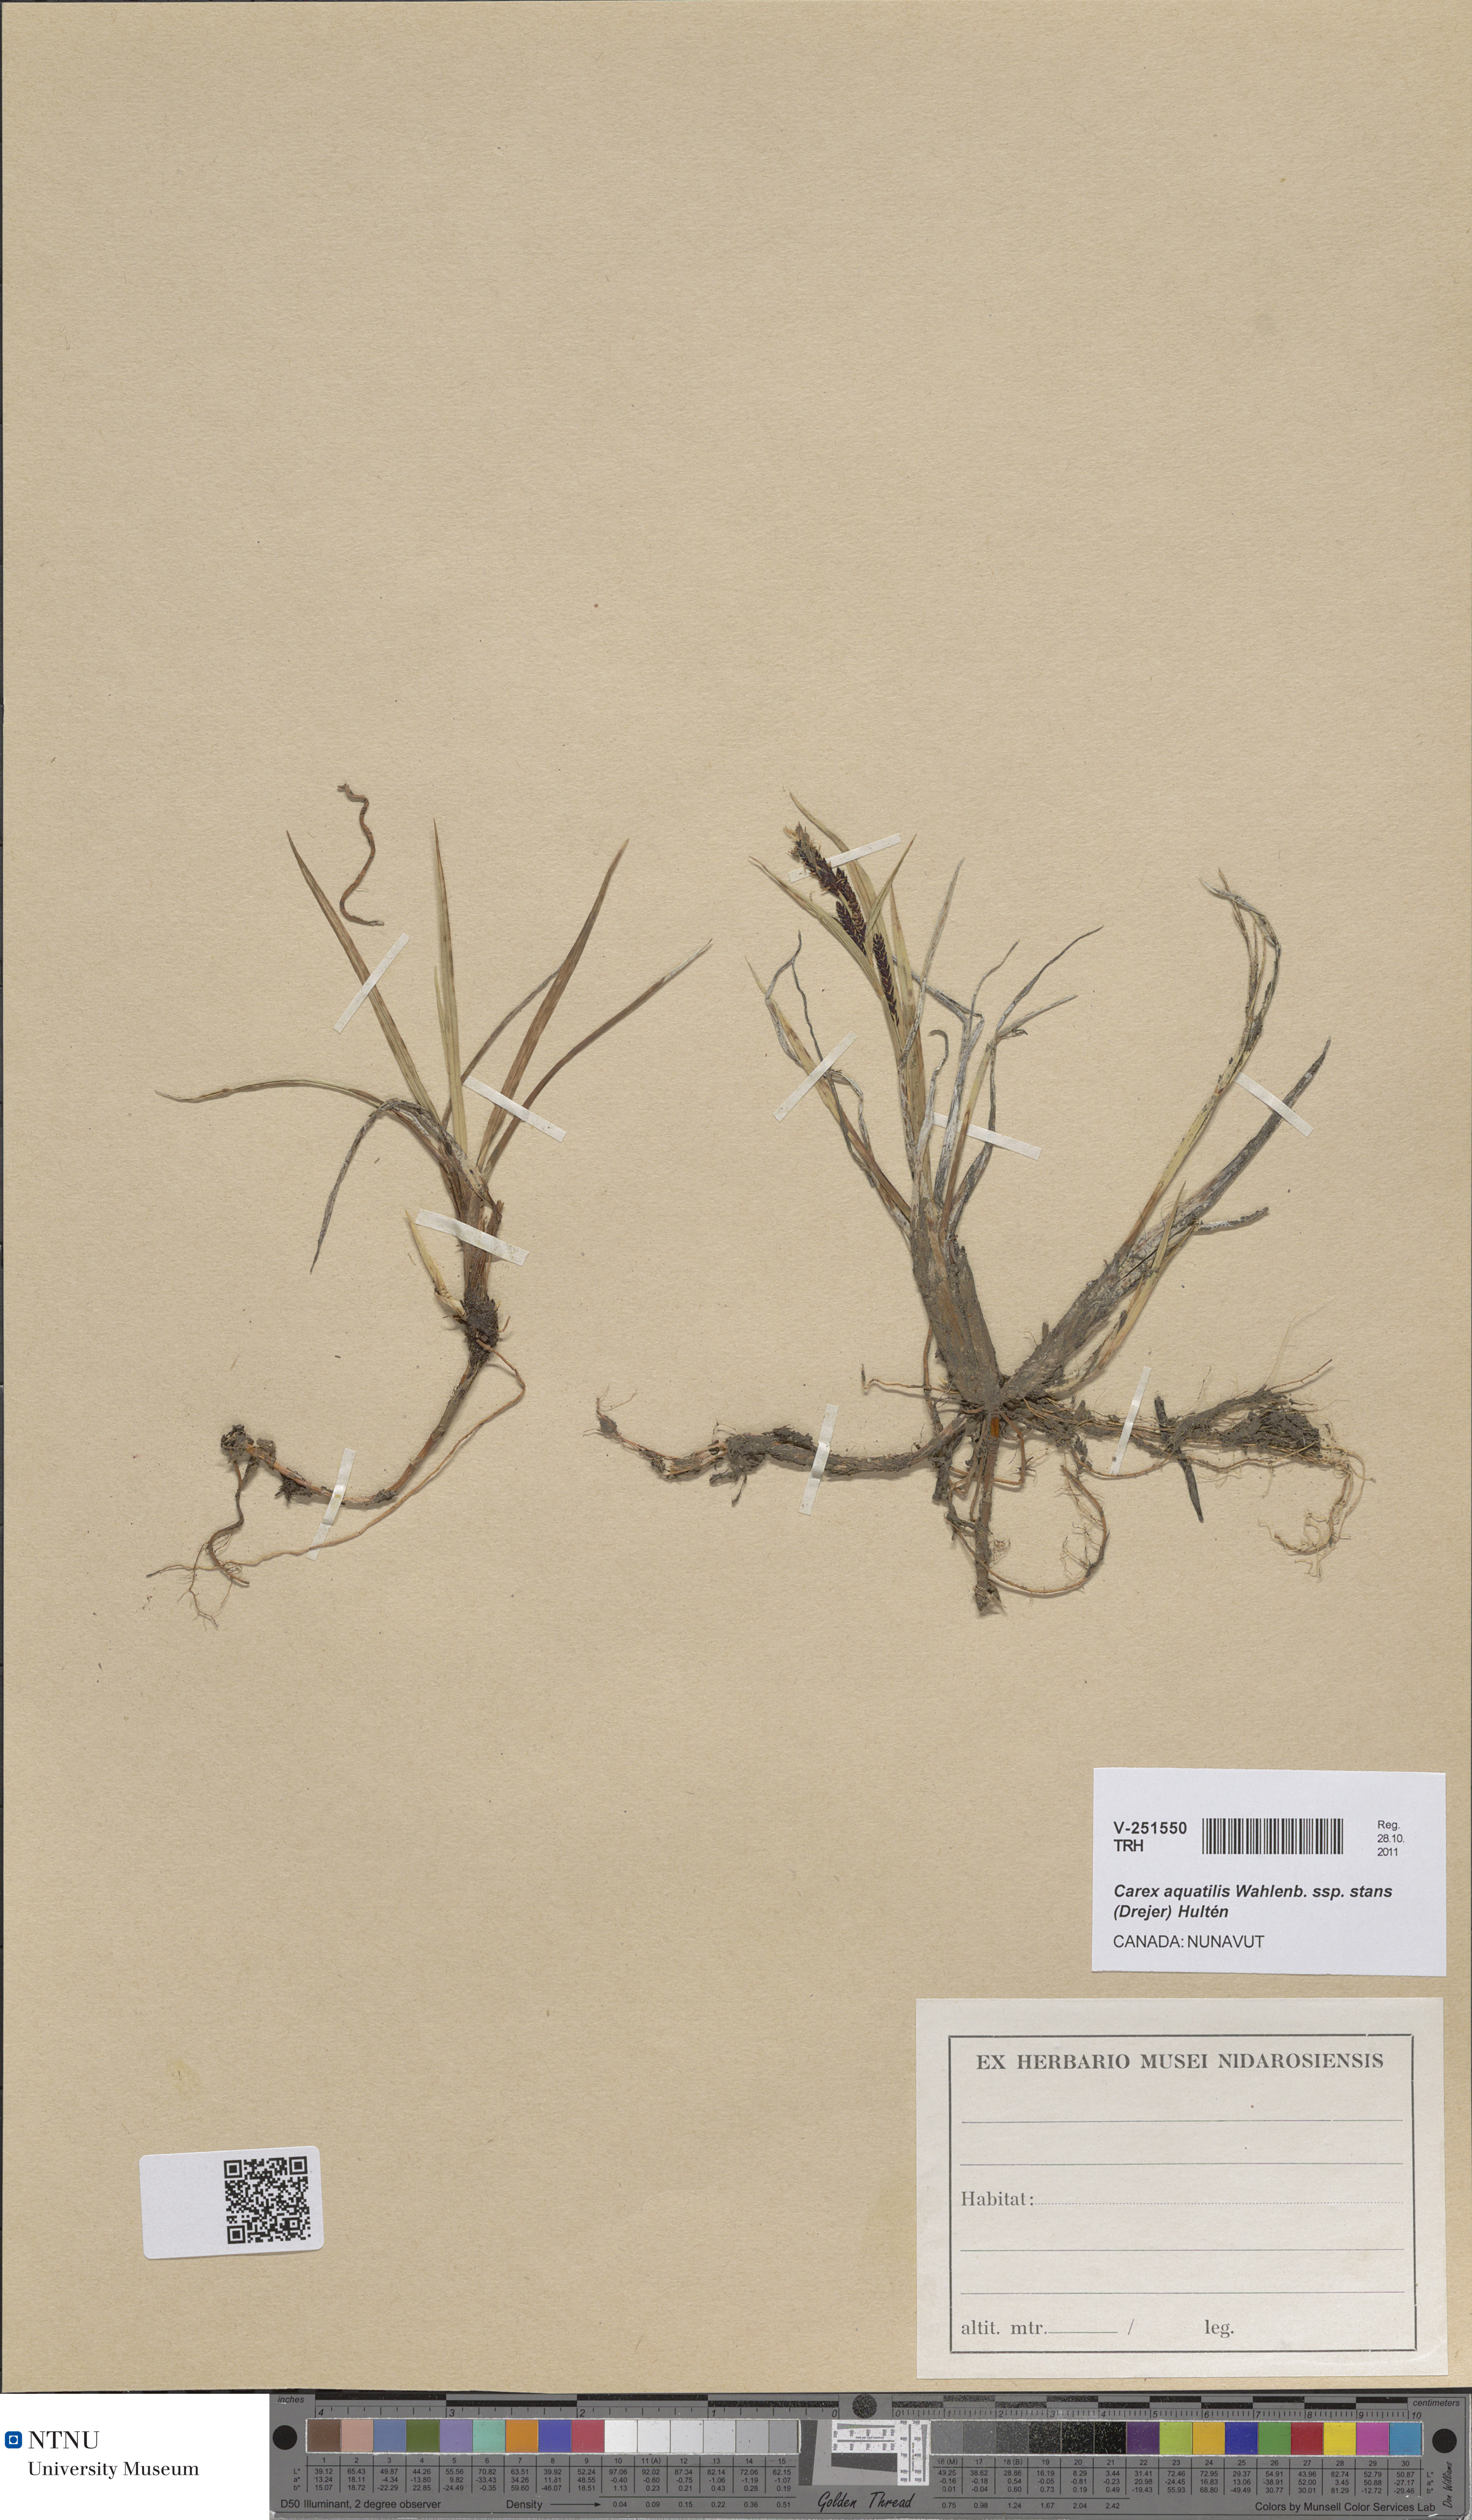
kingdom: Plantae
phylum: Tracheophyta
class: Liliopsida
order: Poales
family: Cyperaceae
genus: Carex
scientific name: Carex aquatilis
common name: Water sedge
